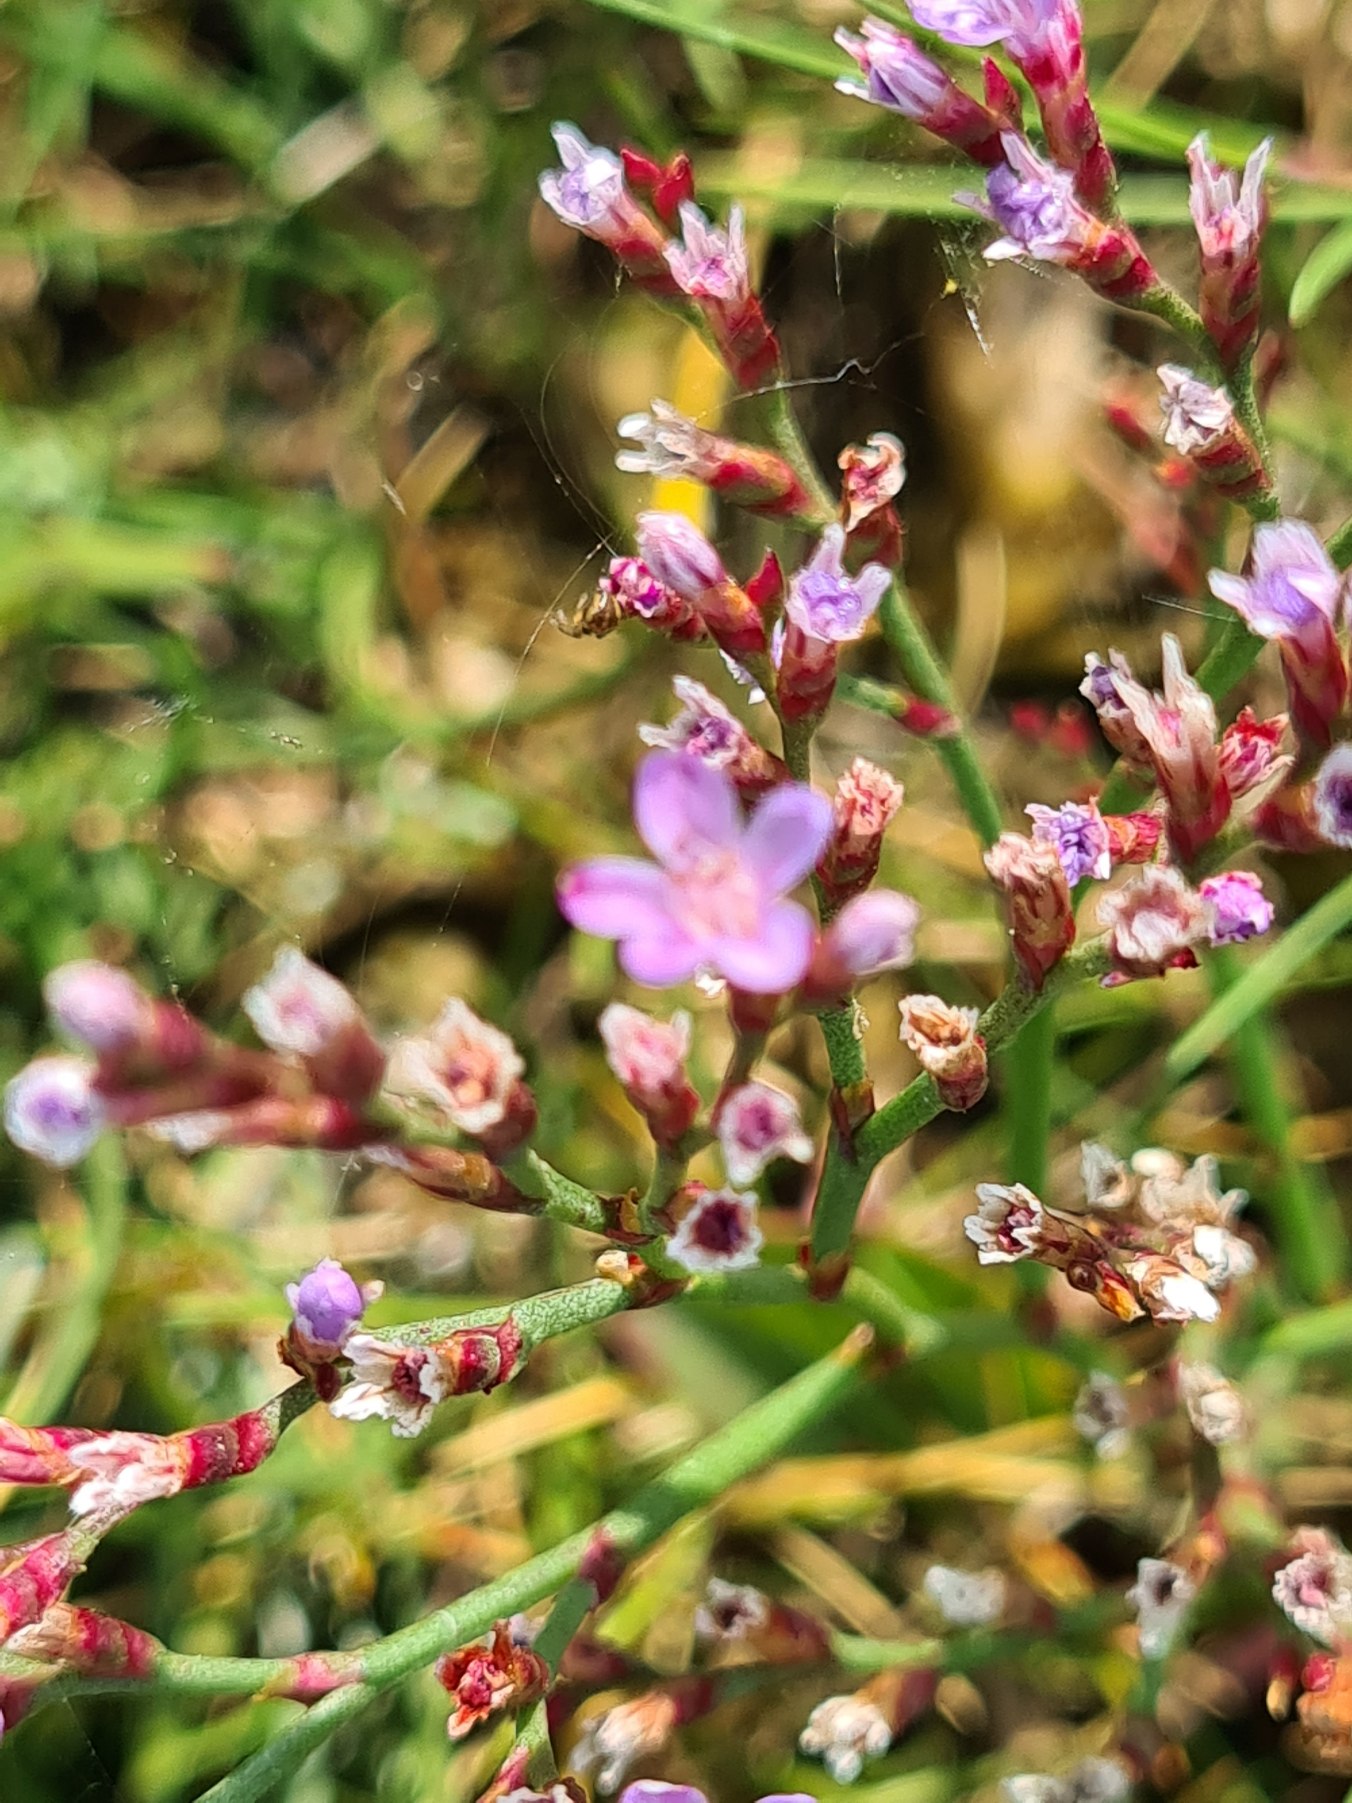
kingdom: Plantae
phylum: Tracheophyta
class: Magnoliopsida
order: Caryophyllales
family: Plumbaginaceae
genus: Limonium
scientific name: Limonium humile
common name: Lav hindebæger
